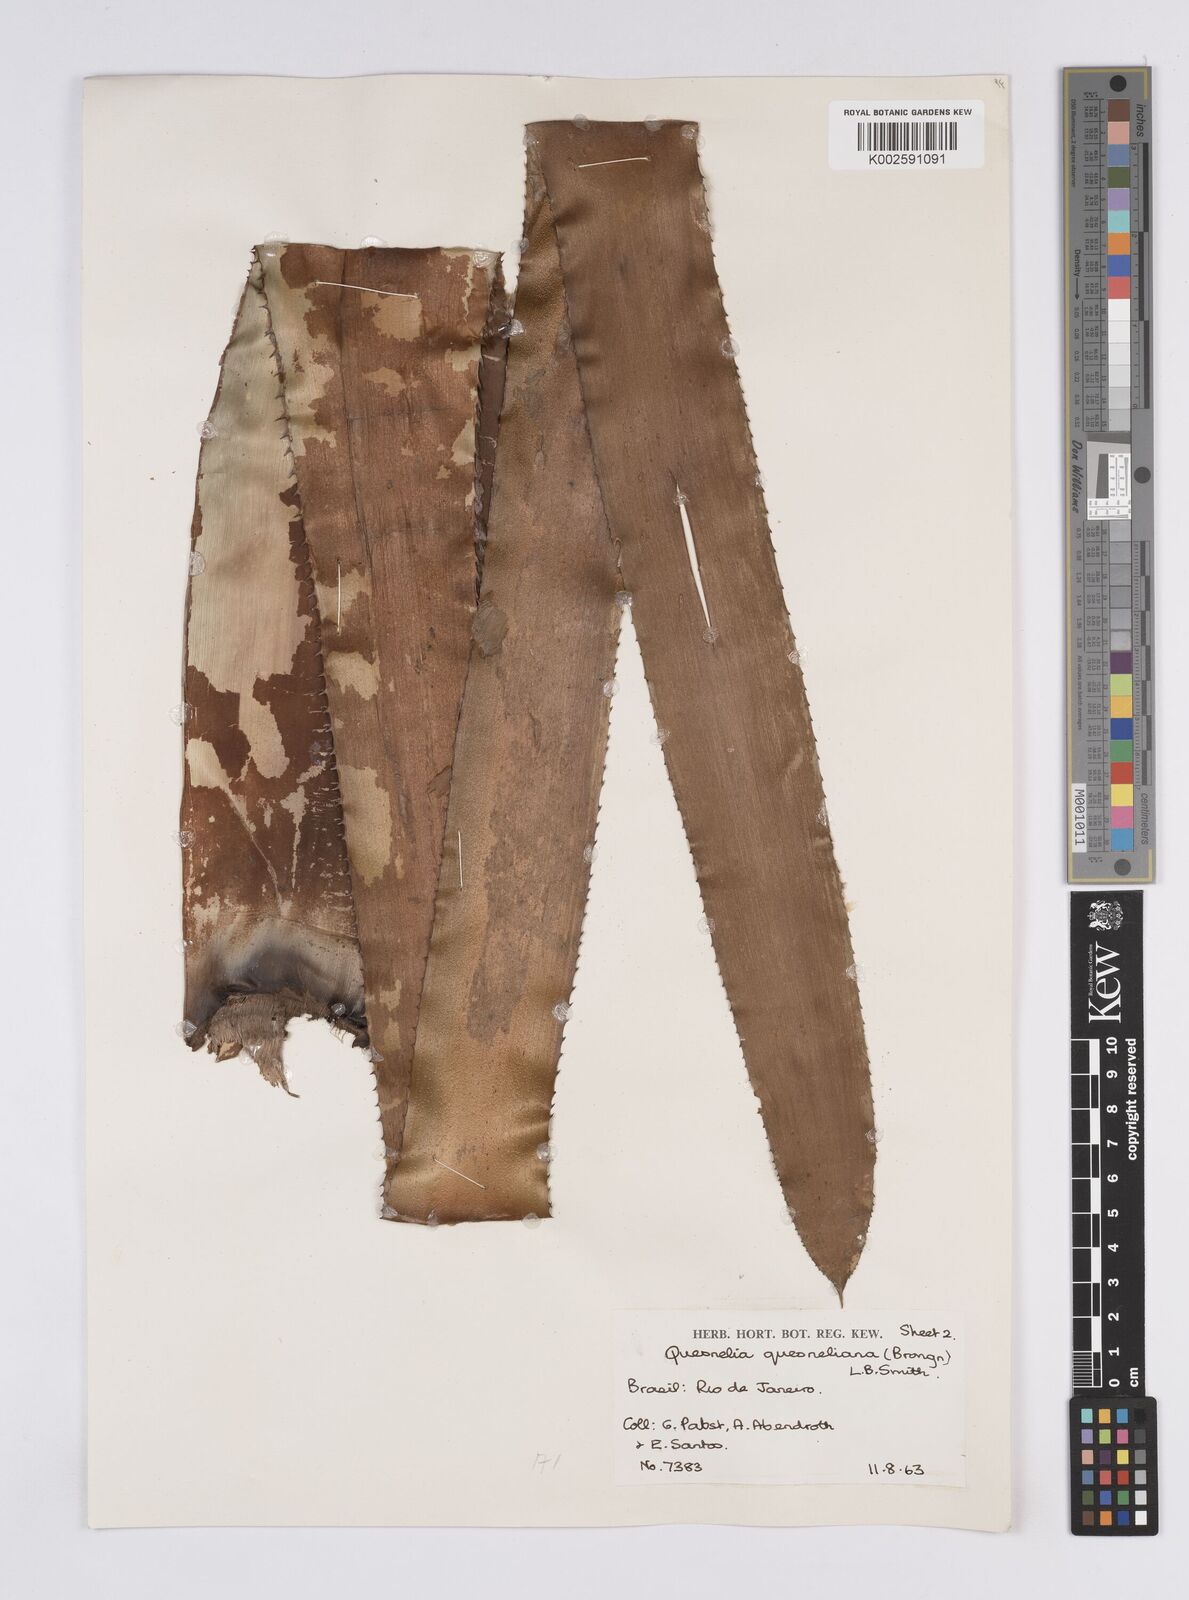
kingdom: Plantae
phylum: Tracheophyta
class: Liliopsida
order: Poales
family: Bromeliaceae
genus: Quesnelia
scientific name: Quesnelia quesneliana
